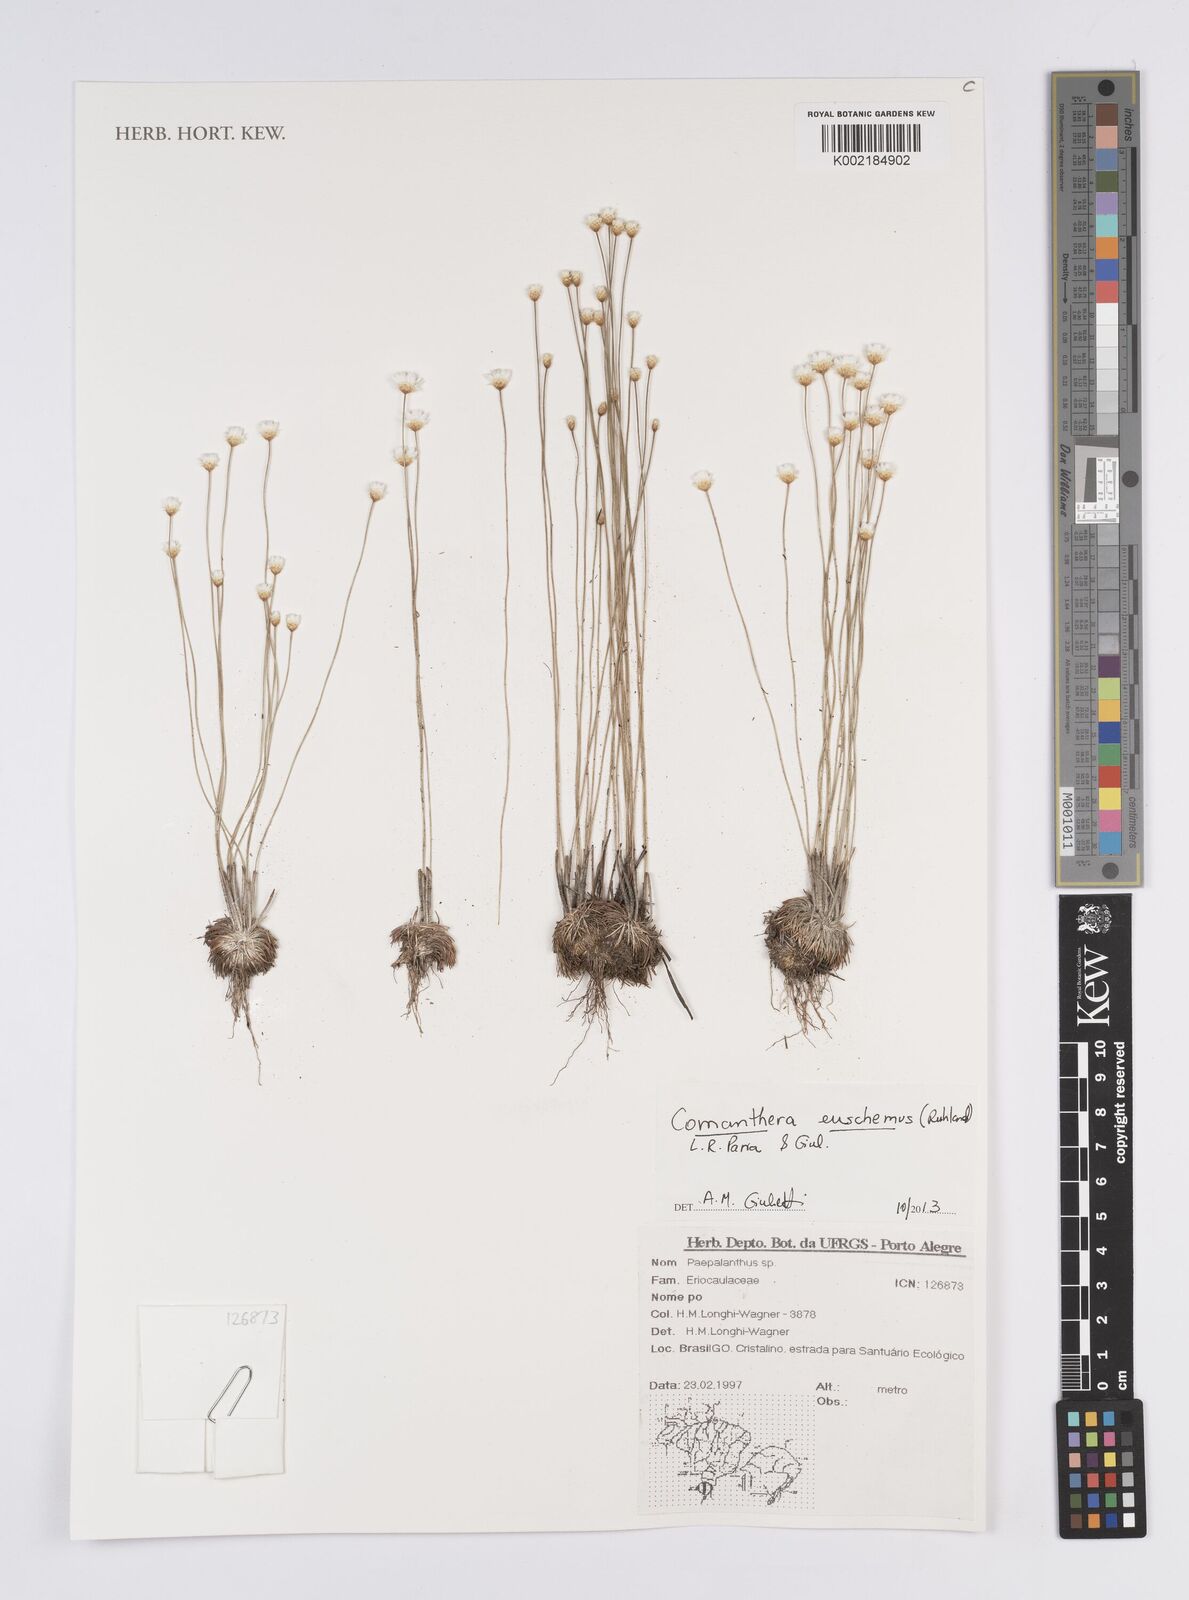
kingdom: Plantae
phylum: Tracheophyta
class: Liliopsida
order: Poales
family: Eriocaulaceae
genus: Comanthera
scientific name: Comanthera euschemus
